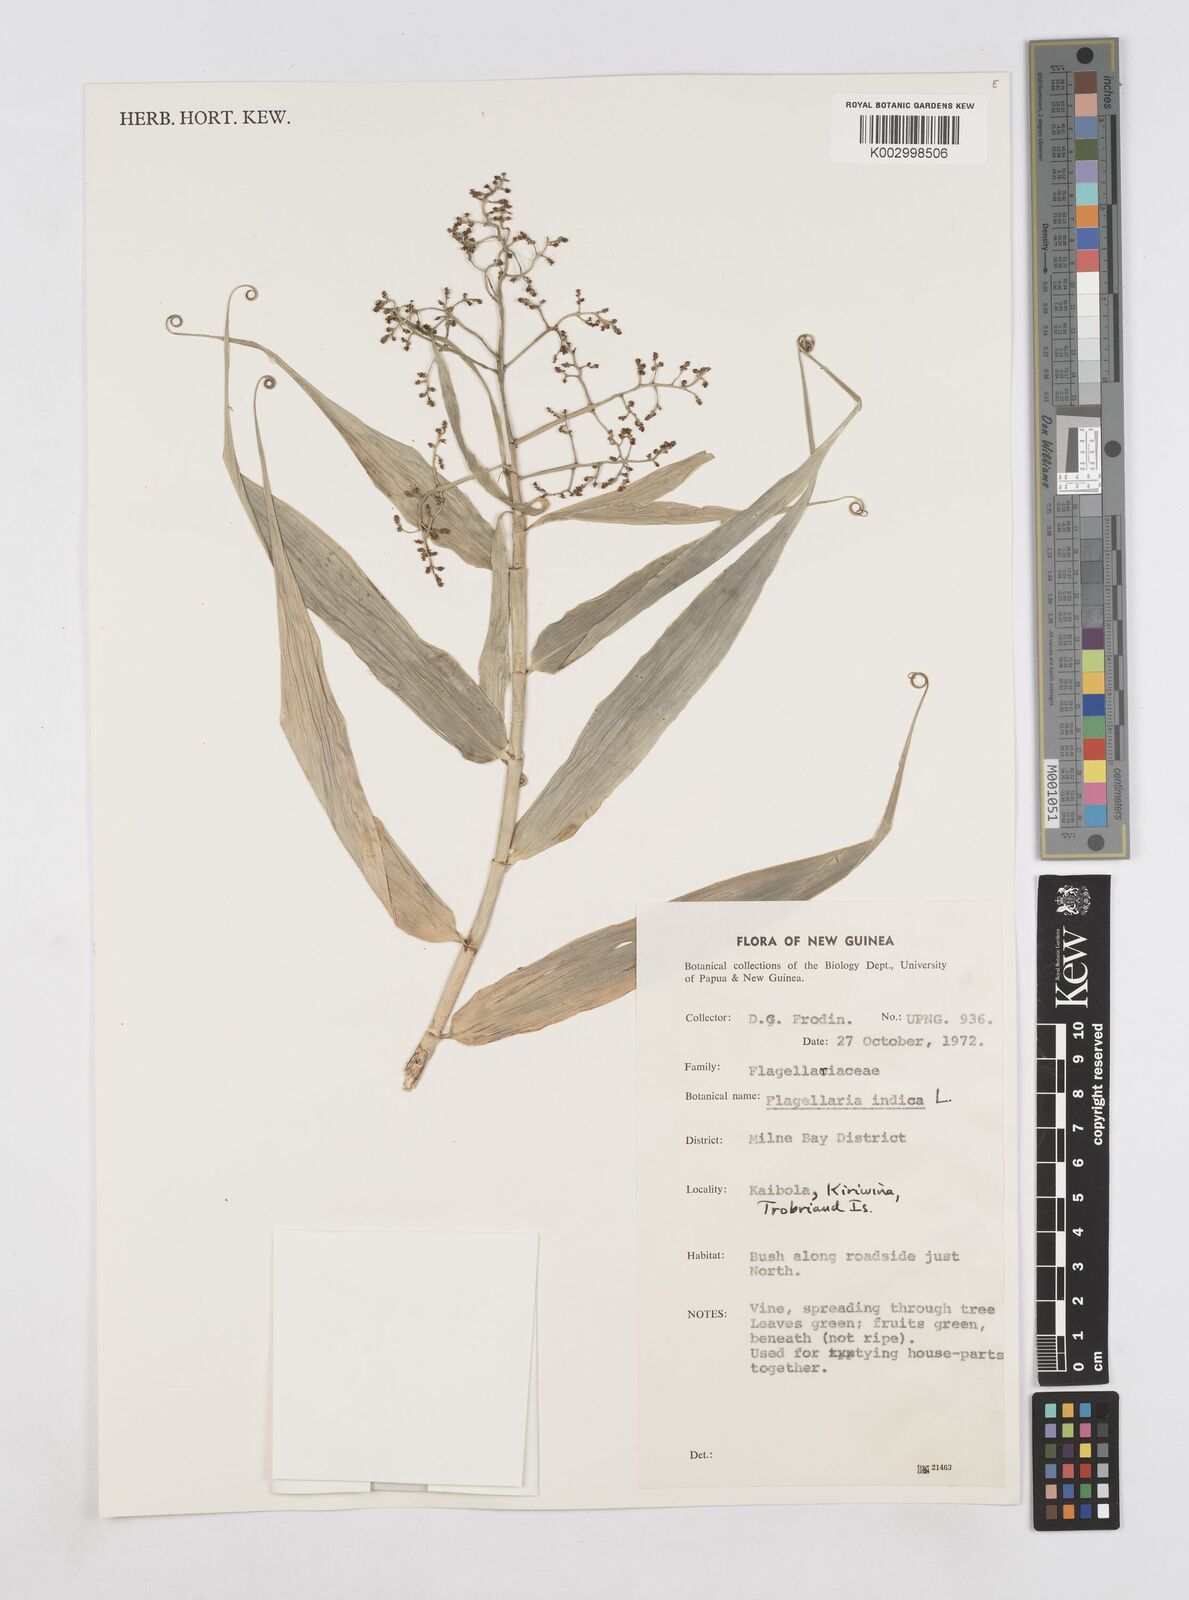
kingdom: Plantae
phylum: Tracheophyta
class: Liliopsida
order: Poales
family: Flagellariaceae
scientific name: Flagellariaceae
